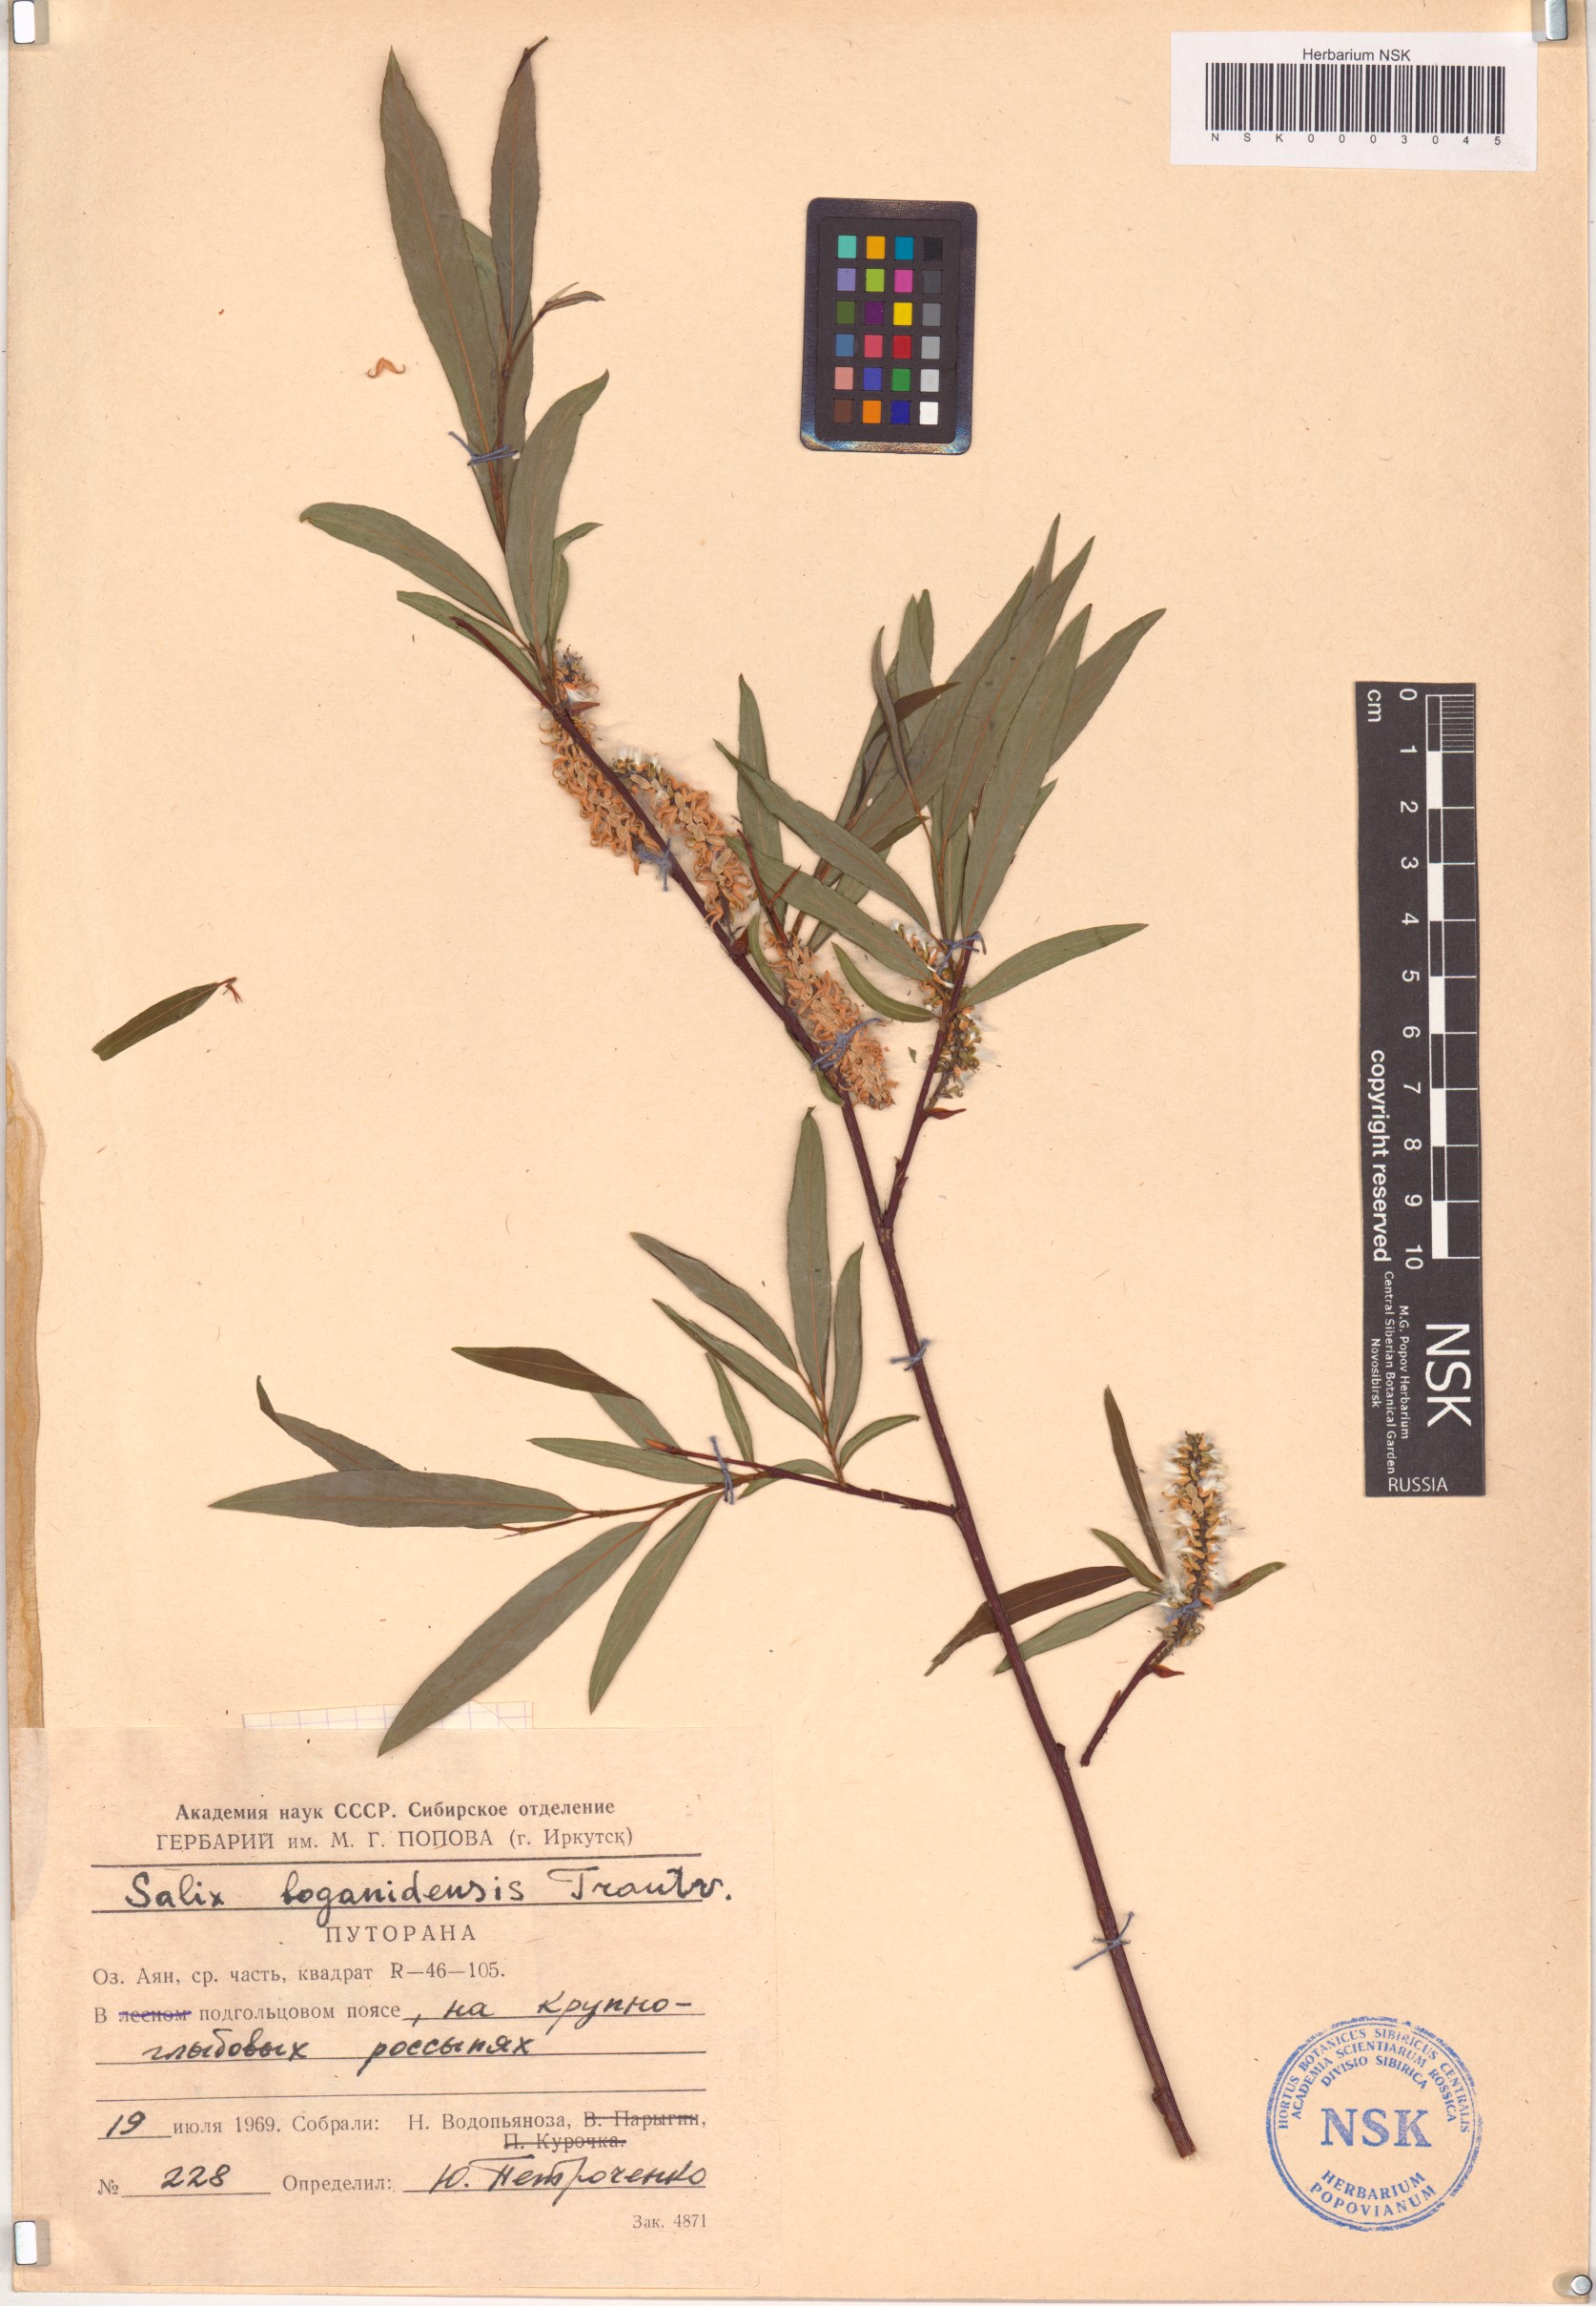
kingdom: Plantae
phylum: Tracheophyta
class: Magnoliopsida
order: Malpighiales
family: Salicaceae
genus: Salix
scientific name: Salix boganidensis
